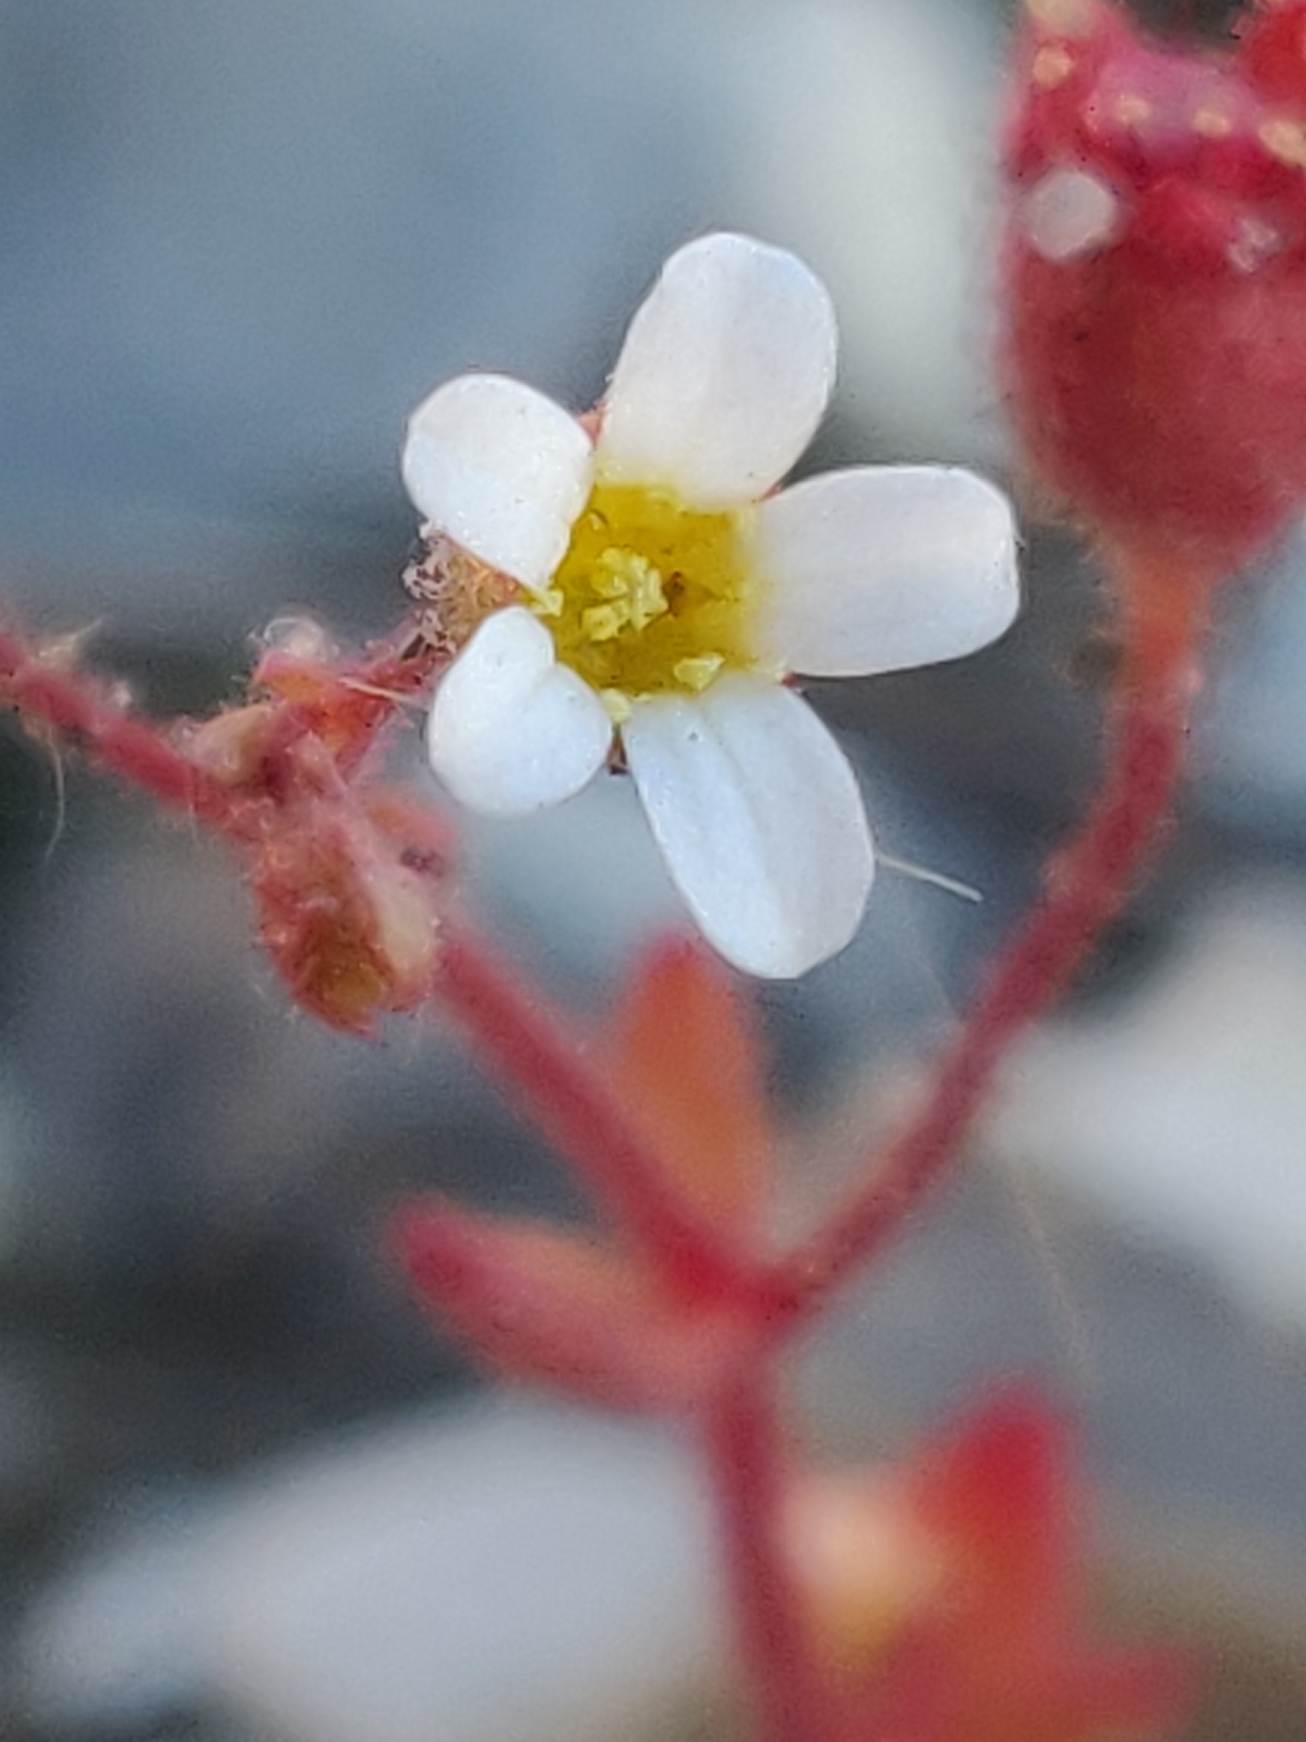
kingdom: Plantae
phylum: Tracheophyta
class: Magnoliopsida
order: Saxifragales
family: Saxifragaceae
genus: Saxifraga
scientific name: Saxifraga tridactylites
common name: Trekløft-stenbræk
